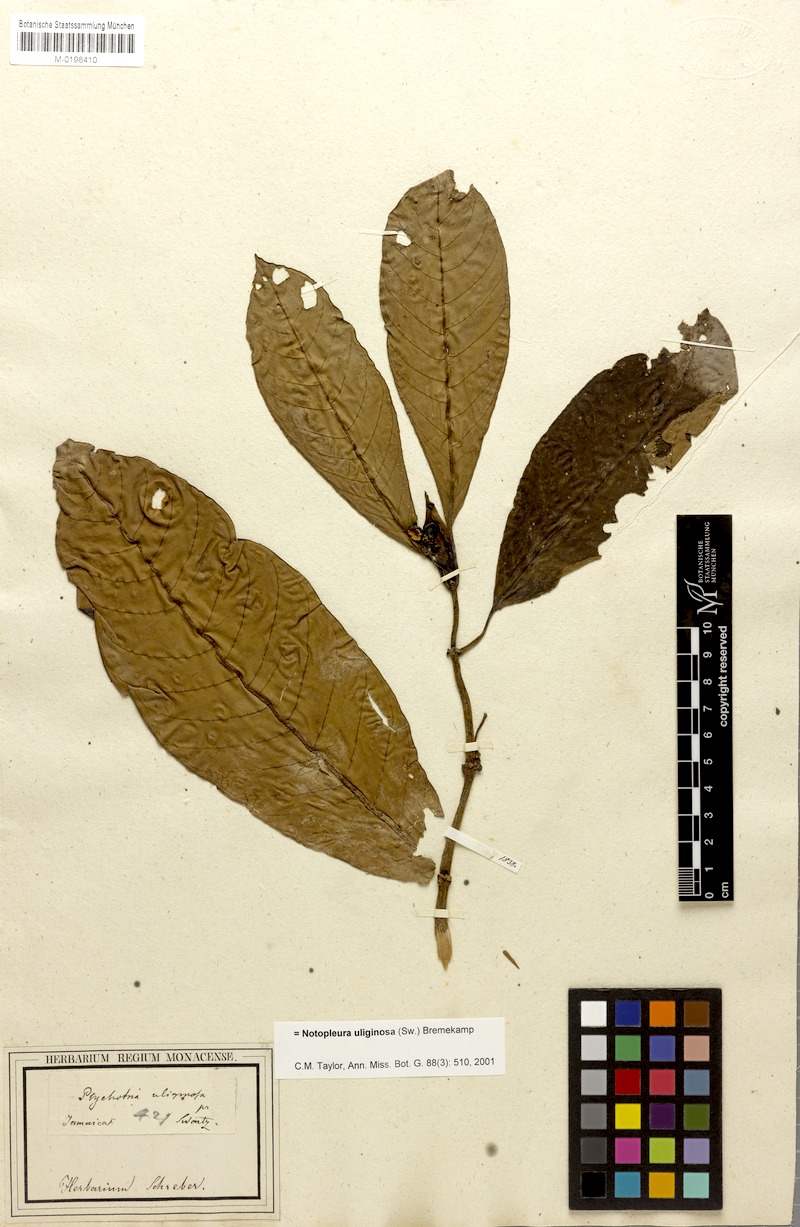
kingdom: Plantae
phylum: Tracheophyta
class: Magnoliopsida
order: Gentianales
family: Rubiaceae
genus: Notopleura
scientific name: Notopleura uliginosa
